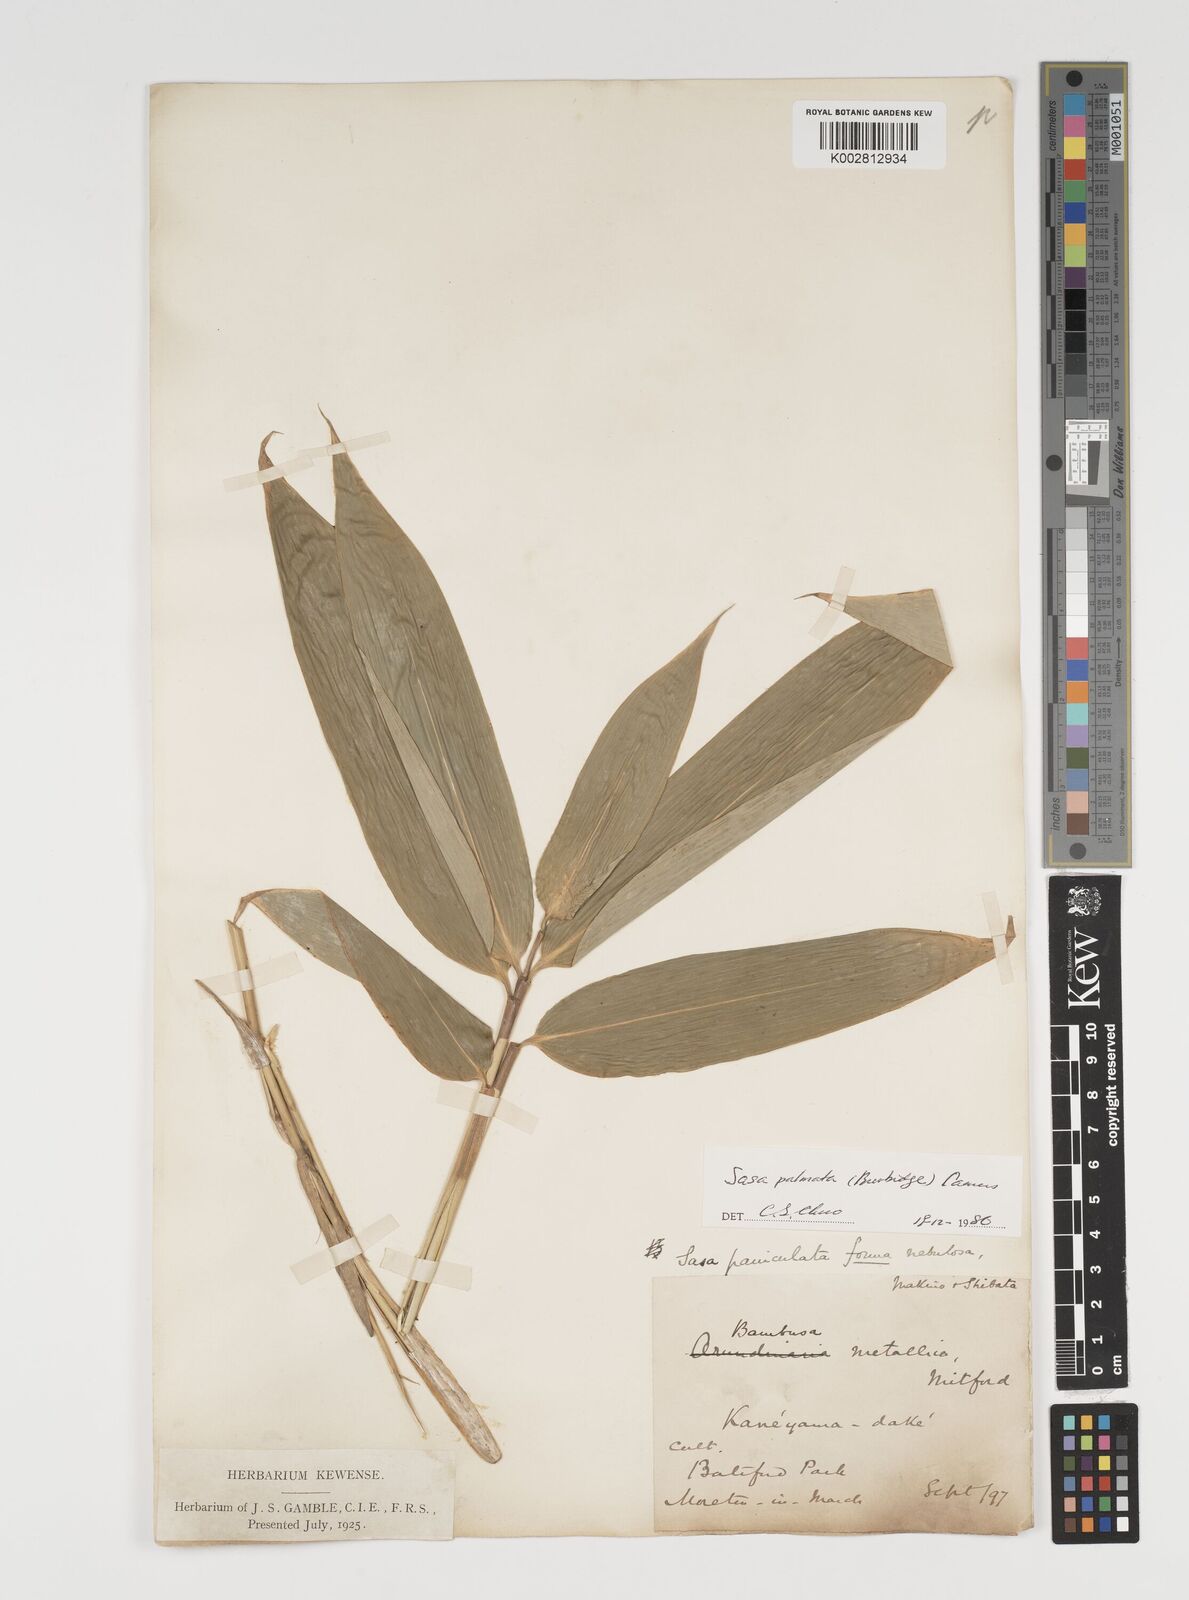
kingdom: Plantae
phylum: Tracheophyta
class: Liliopsida
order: Poales
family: Poaceae
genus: Sasa
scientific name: Sasa palmata
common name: Broad-leaved bamboo
